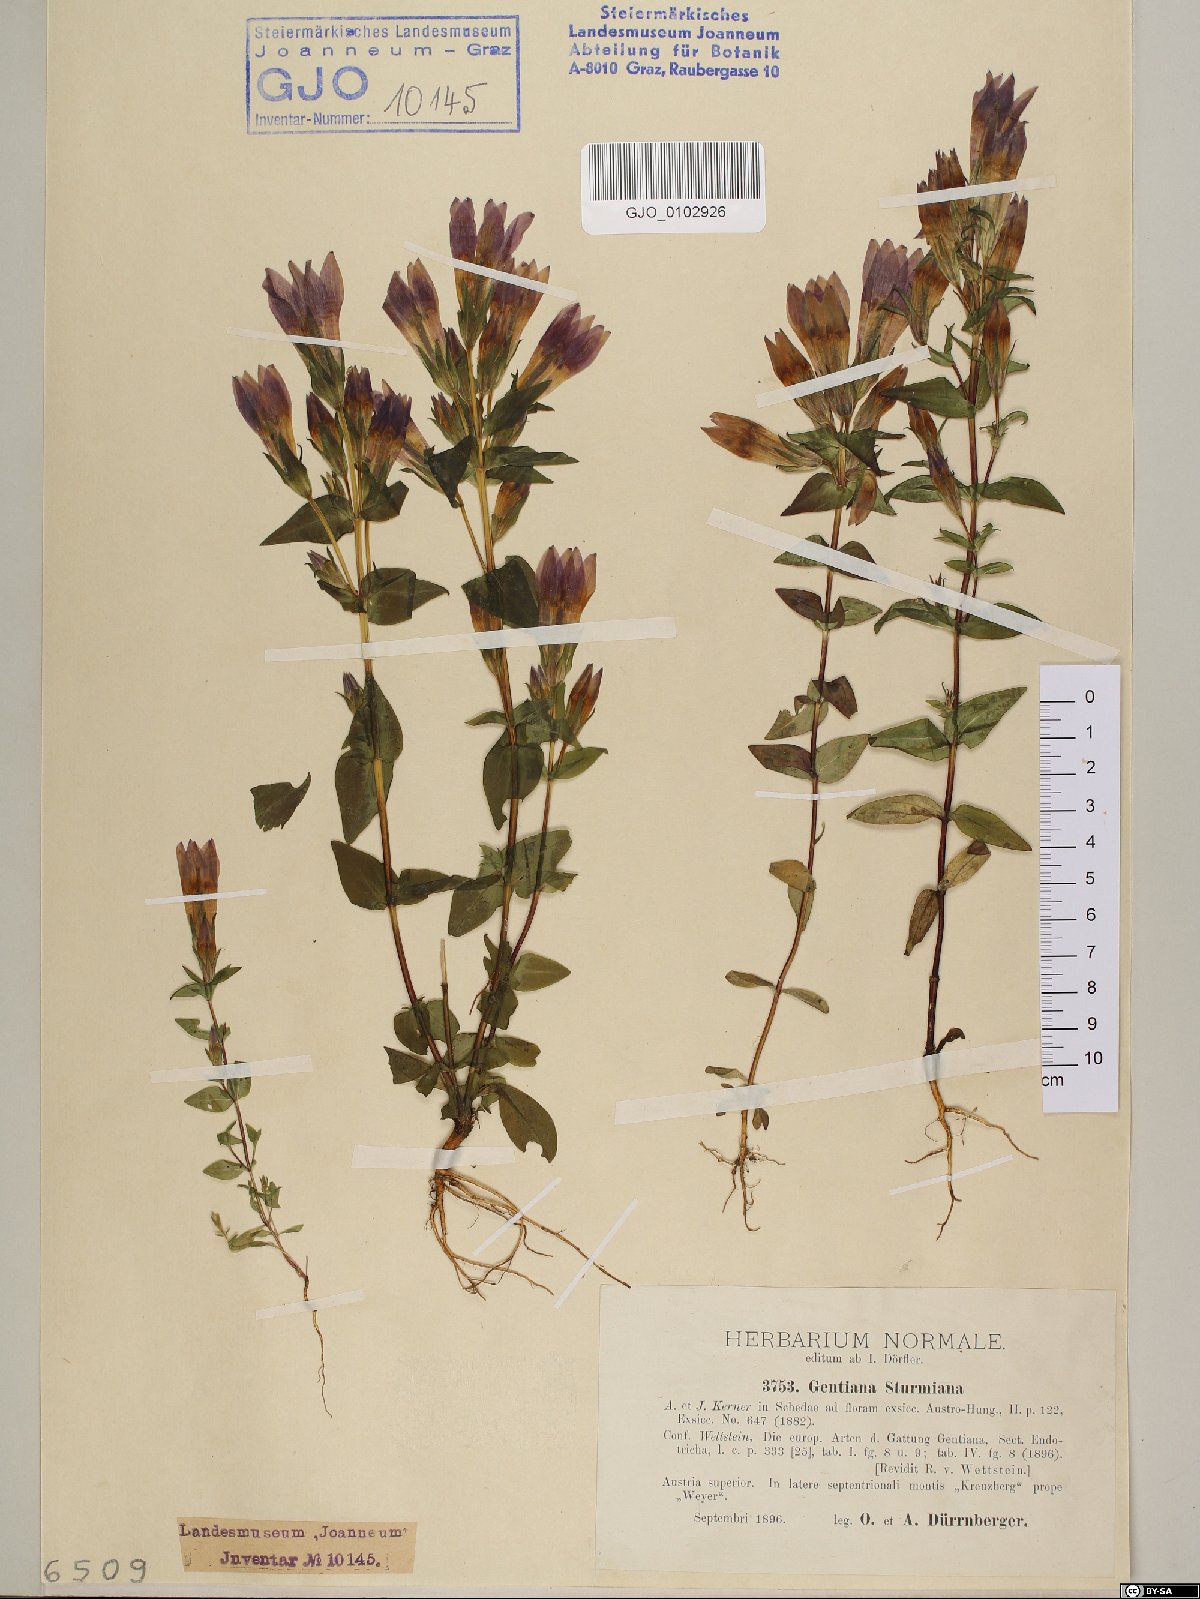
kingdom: Plantae
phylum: Tracheophyta
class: Magnoliopsida
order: Gentianales
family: Gentianaceae
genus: Gentianella
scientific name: Gentianella obtusifolia
